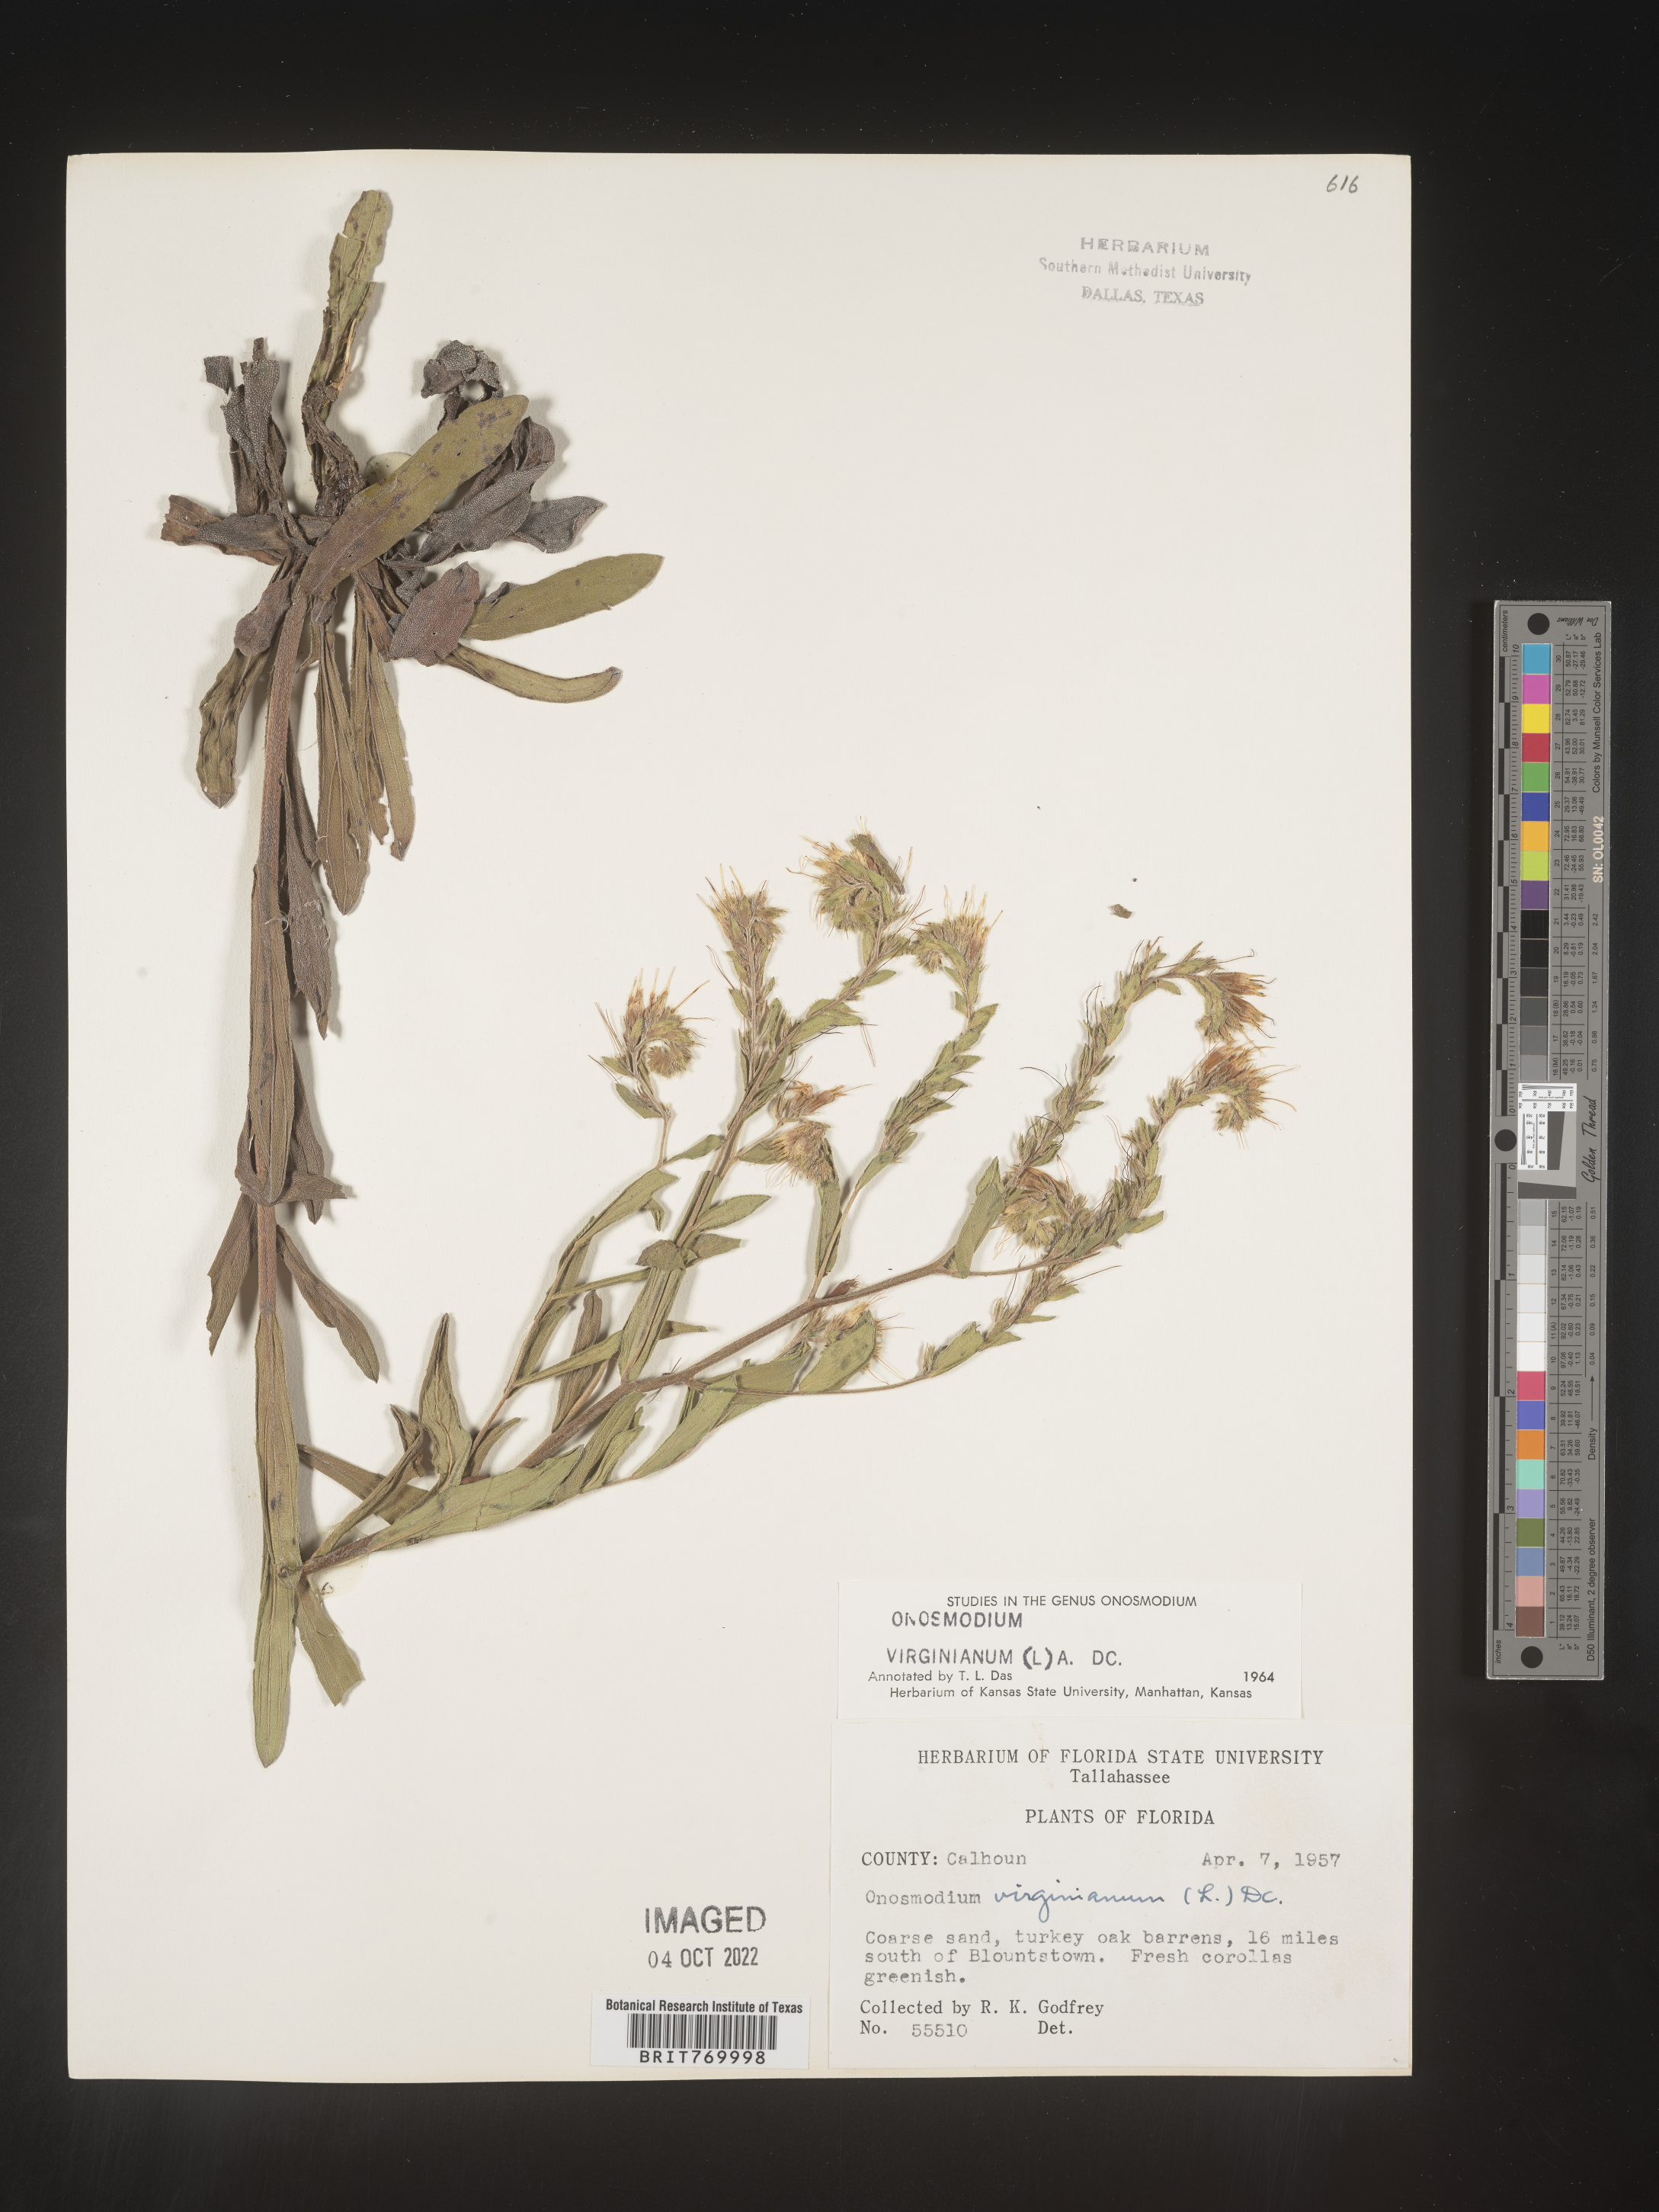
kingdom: Plantae
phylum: Tracheophyta
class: Magnoliopsida
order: Boraginales
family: Boraginaceae
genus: Lithospermum
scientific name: Lithospermum virginianum
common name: Eastern false gromwell
